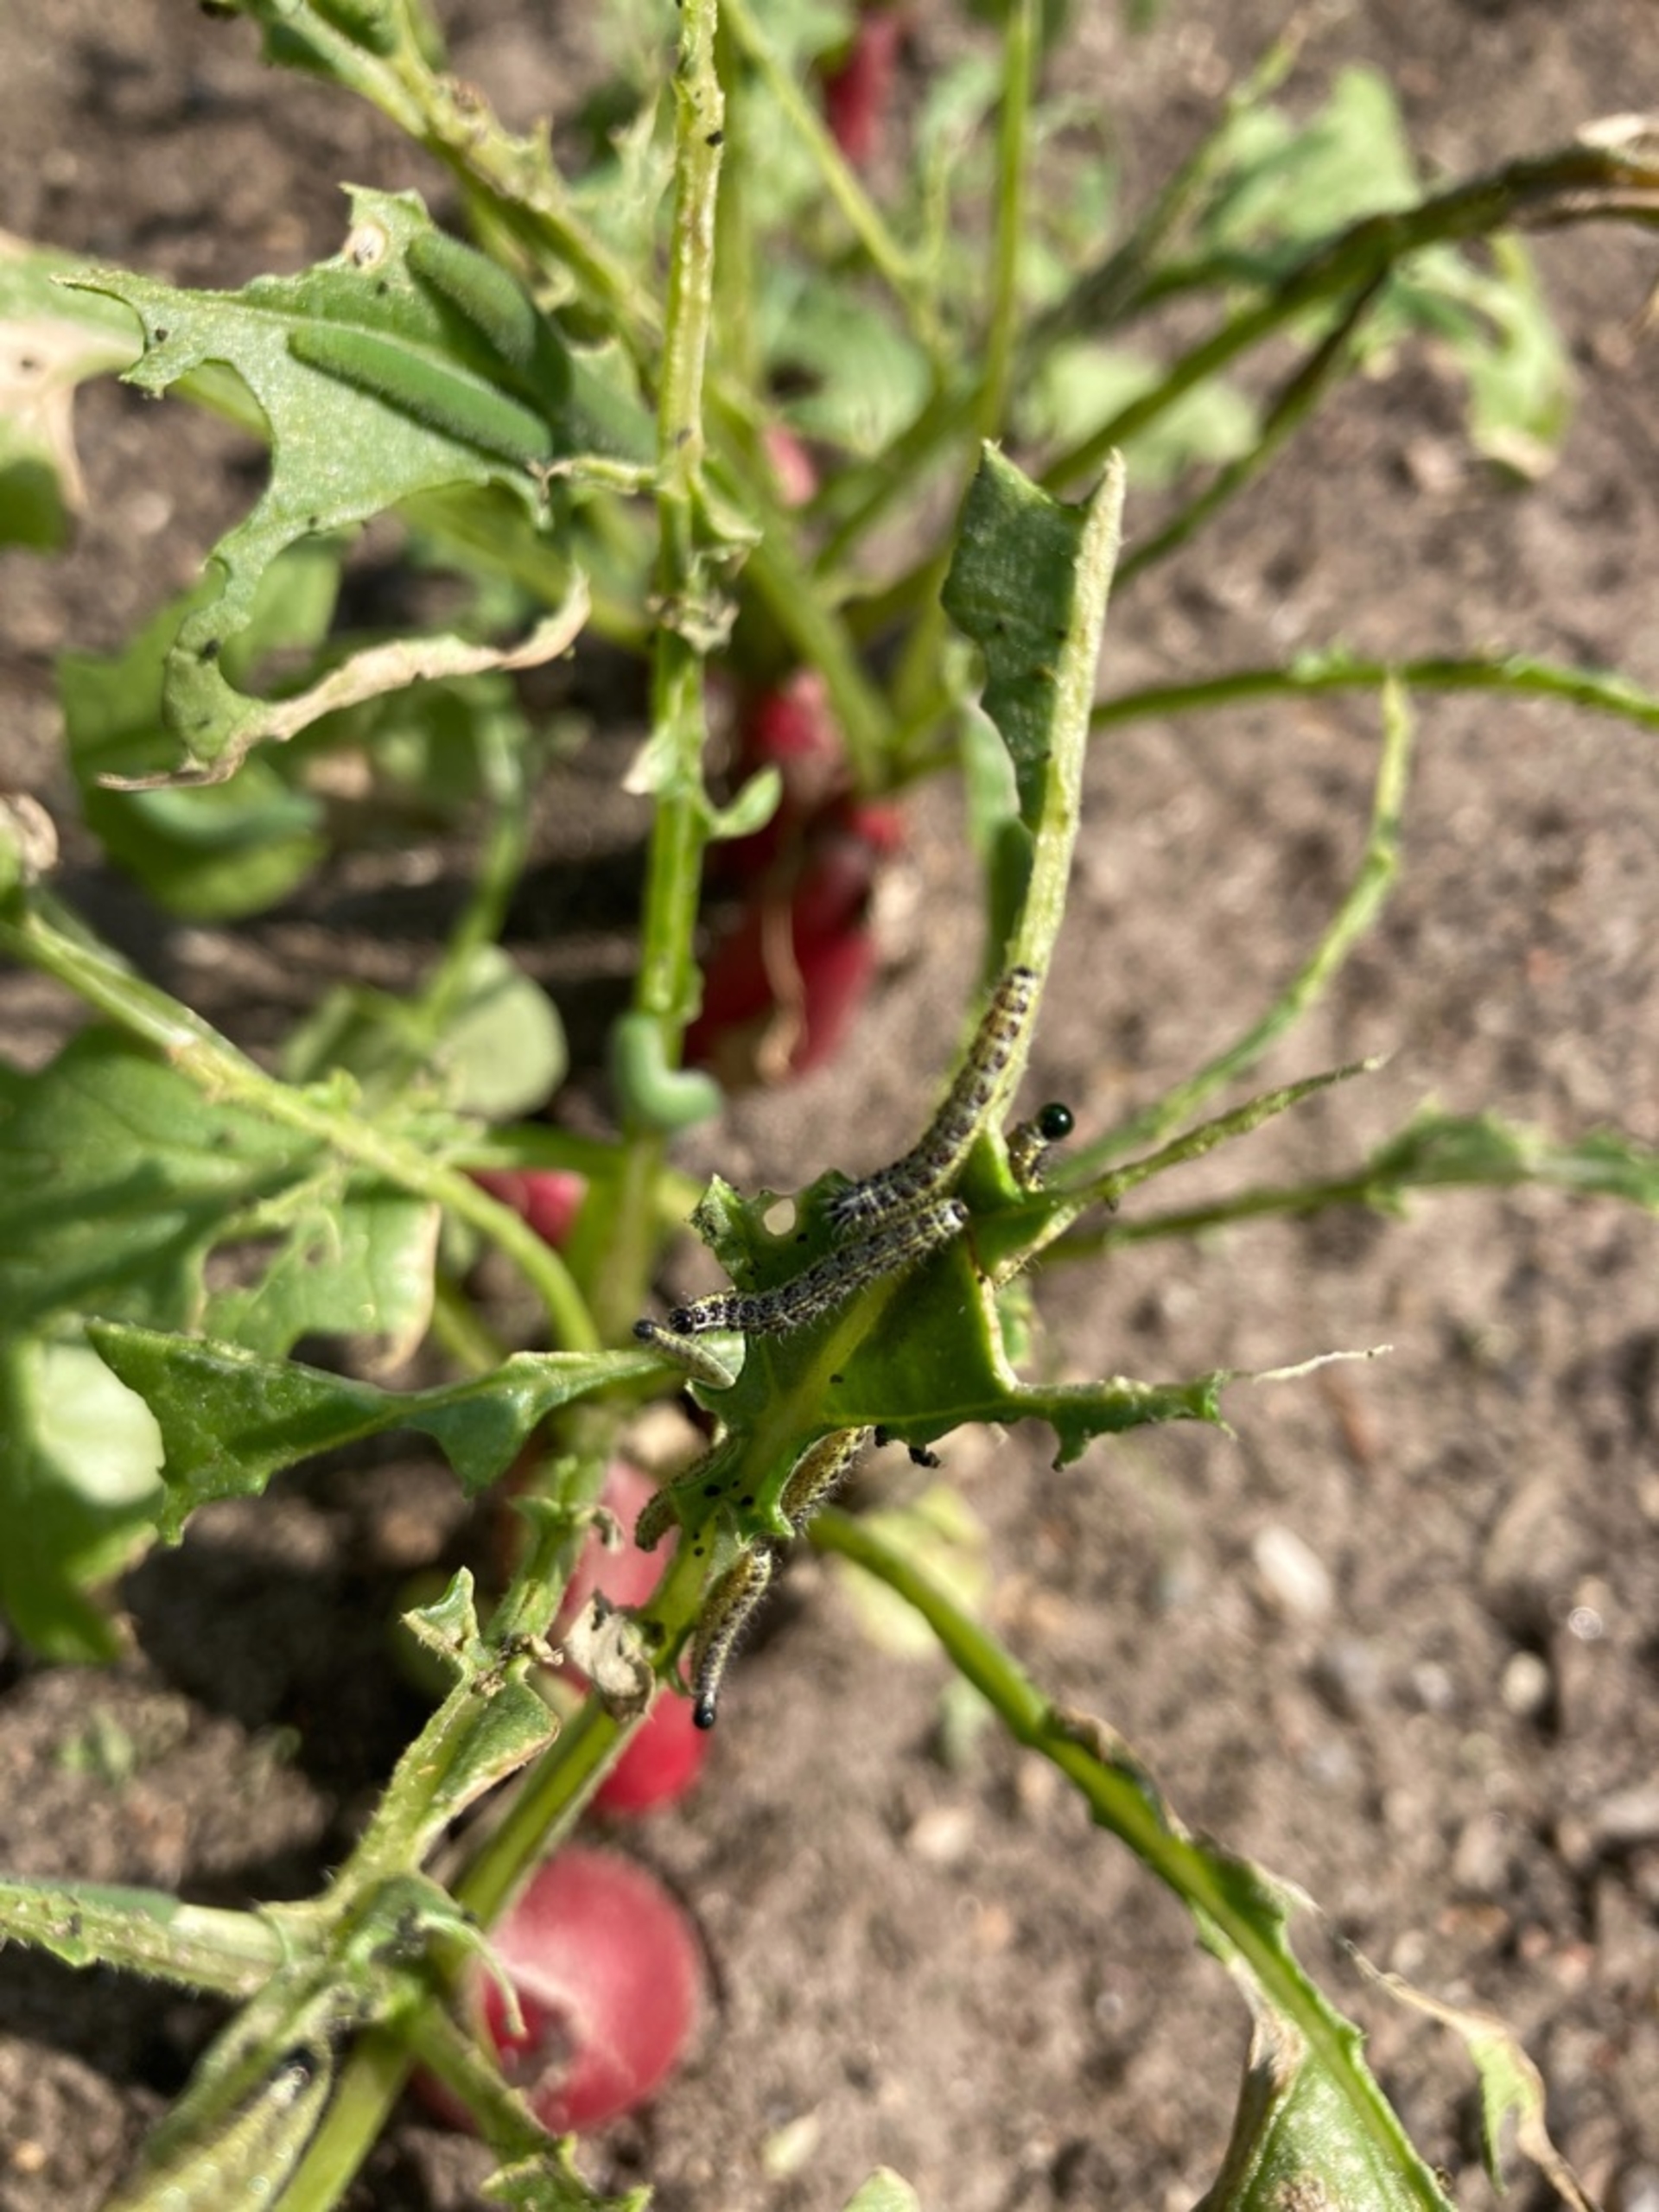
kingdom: Animalia
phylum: Arthropoda
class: Insecta
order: Lepidoptera
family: Pieridae
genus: Pieris
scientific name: Pieris brassicae
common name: Stor kålsommerfugl
